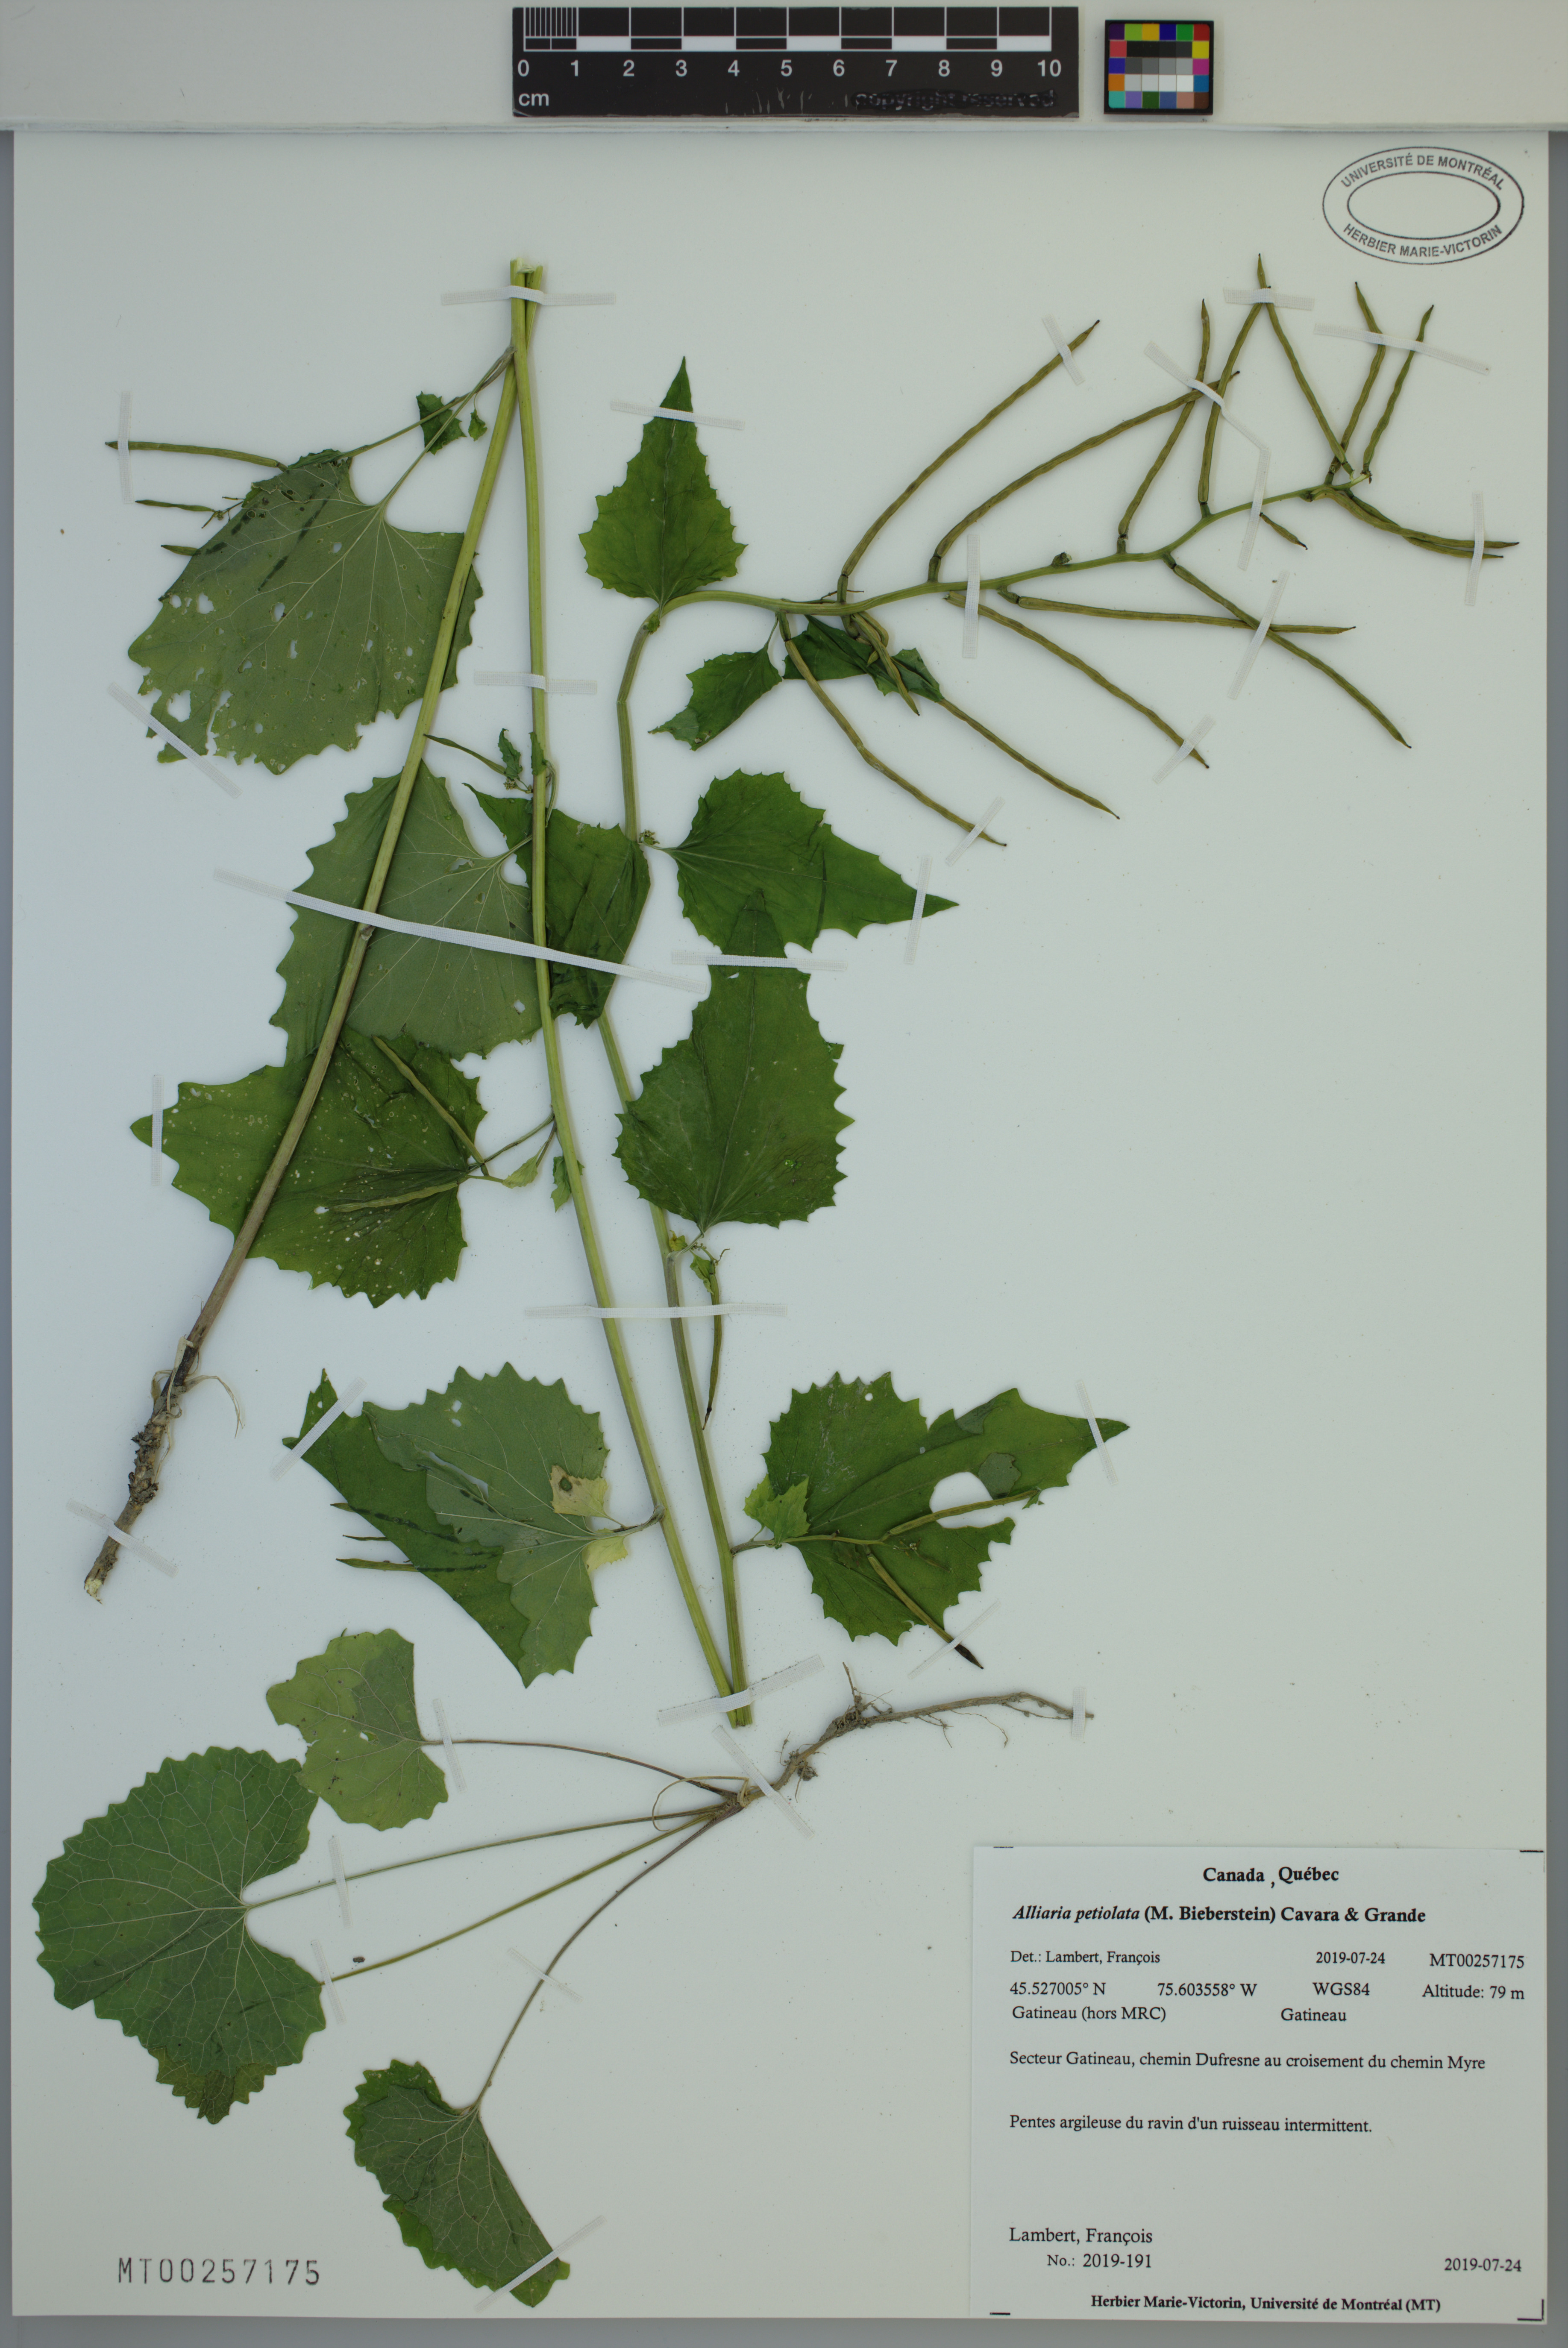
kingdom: Plantae
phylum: Tracheophyta
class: Magnoliopsida
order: Brassicales
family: Brassicaceae
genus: Alliaria
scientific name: Alliaria petiolata
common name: Garlic mustard
